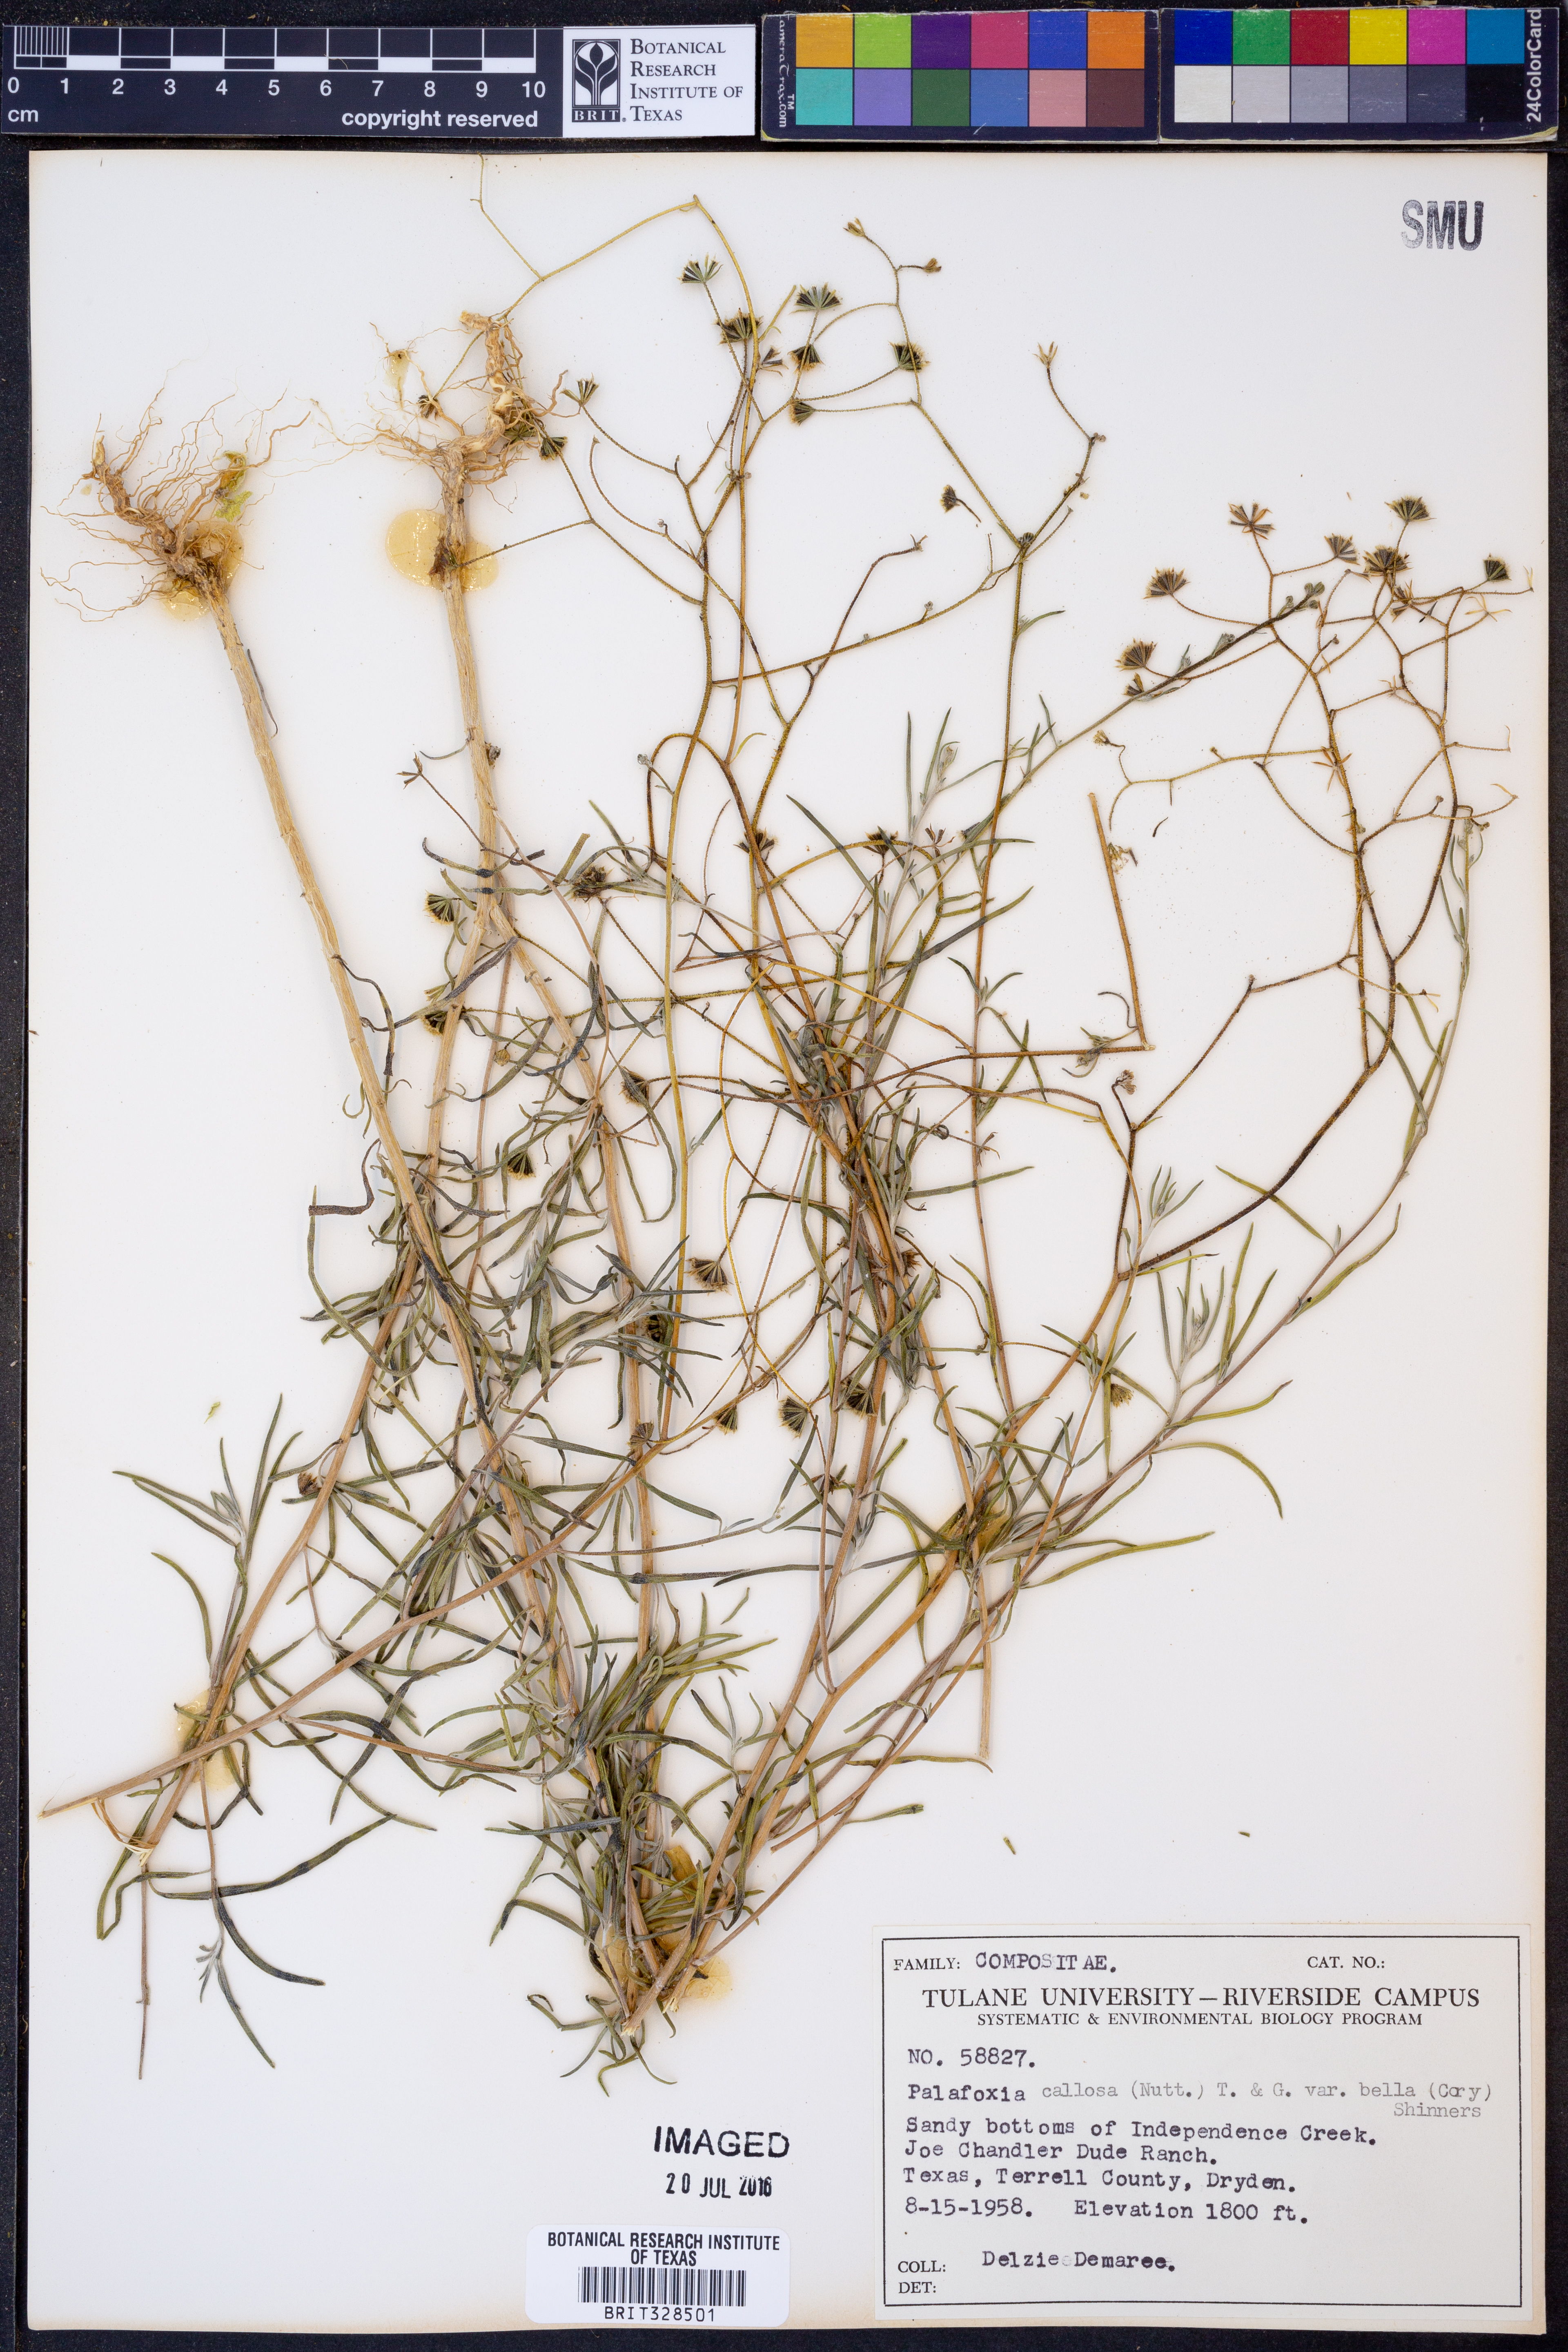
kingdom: Plantae
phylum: Tracheophyta
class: Magnoliopsida
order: Asterales
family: Asteraceae
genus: Palafoxia
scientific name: Palafoxia callosa
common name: Small palafox
